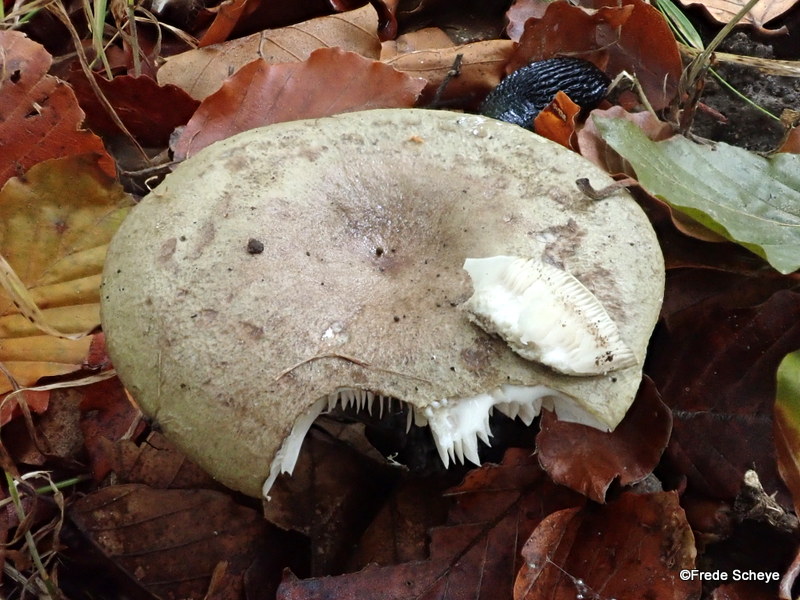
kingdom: Fungi
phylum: Basidiomycota
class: Agaricomycetes
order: Russulales
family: Russulaceae
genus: Lactarius
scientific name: Lactarius blennius
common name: dråbeplettet mælkehat
